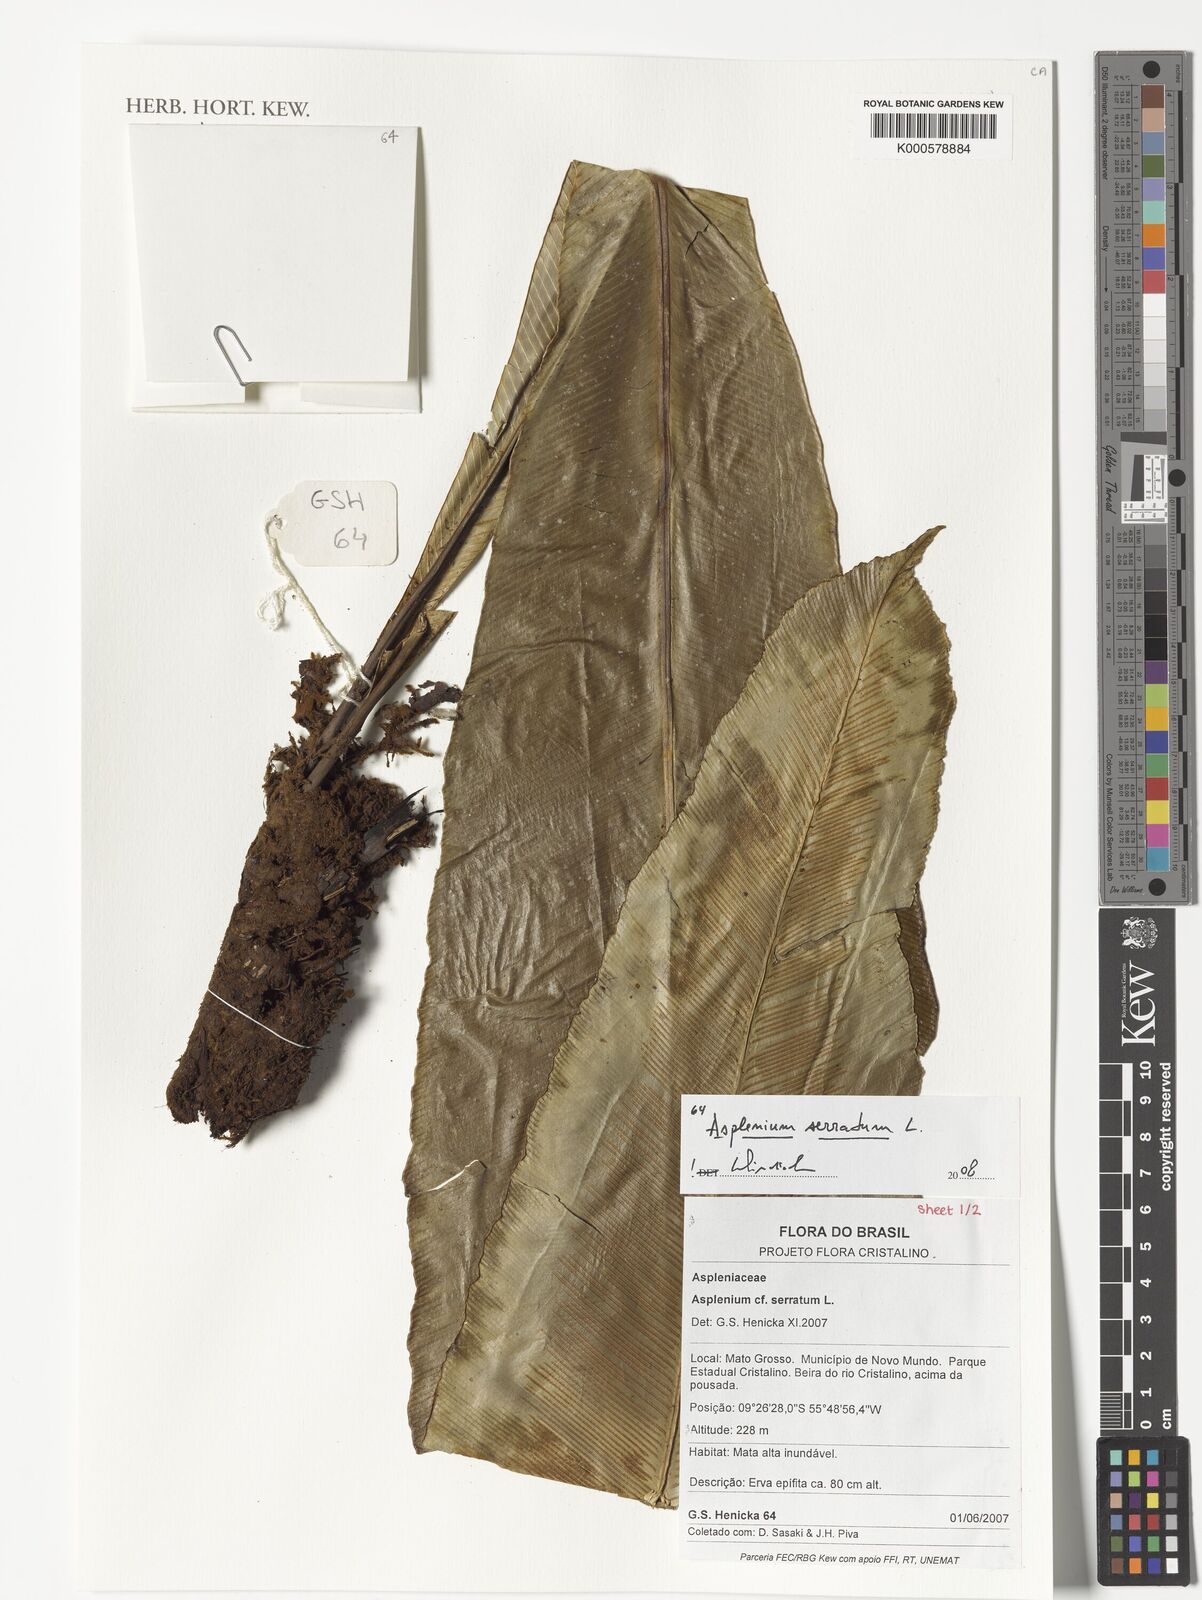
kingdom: Plantae
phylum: Tracheophyta
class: Polypodiopsida
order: Polypodiales
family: Aspleniaceae
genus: Asplenium
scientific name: Asplenium serratum
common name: Wild birdnest fern
